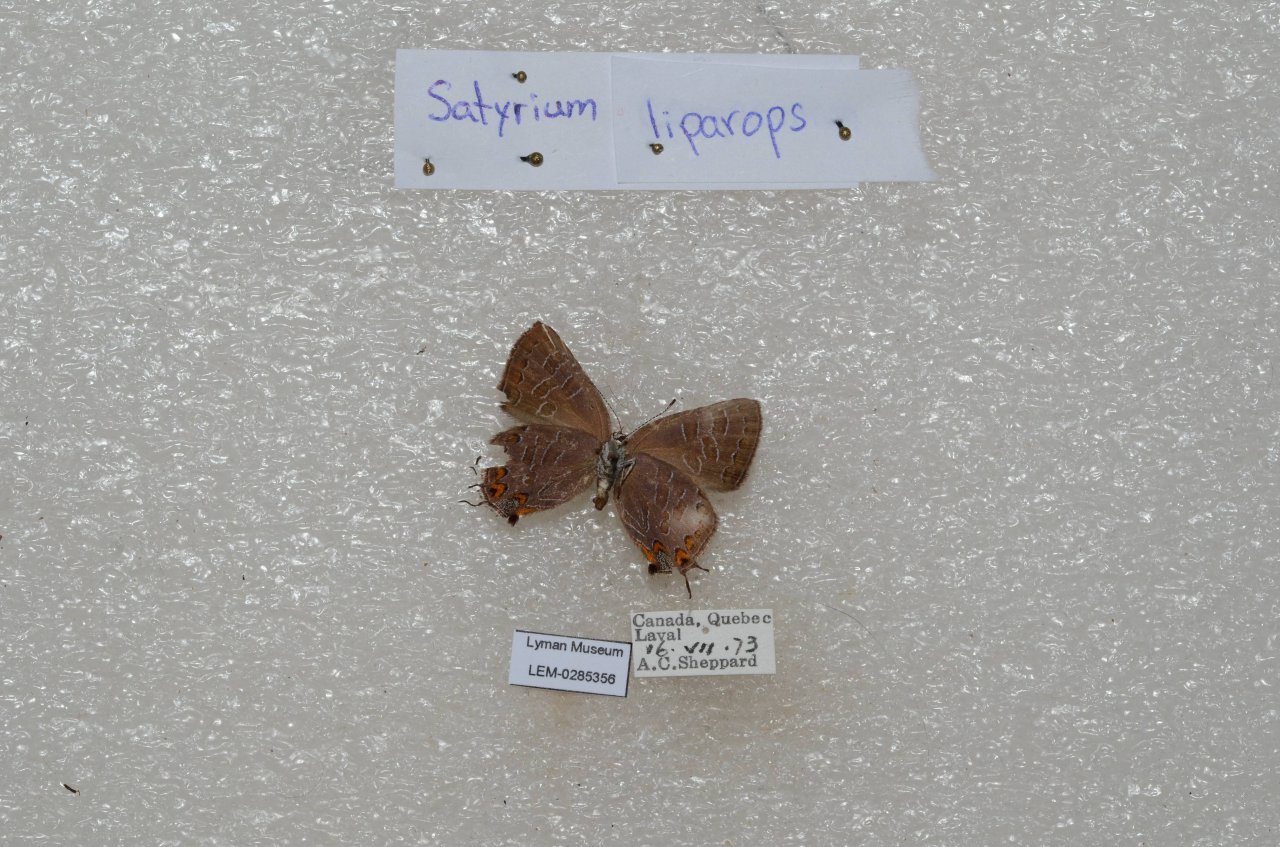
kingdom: Animalia
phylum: Arthropoda
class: Insecta
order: Lepidoptera
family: Lycaenidae
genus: Satyrium
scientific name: Satyrium liparops
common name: Striped Hairstreak
